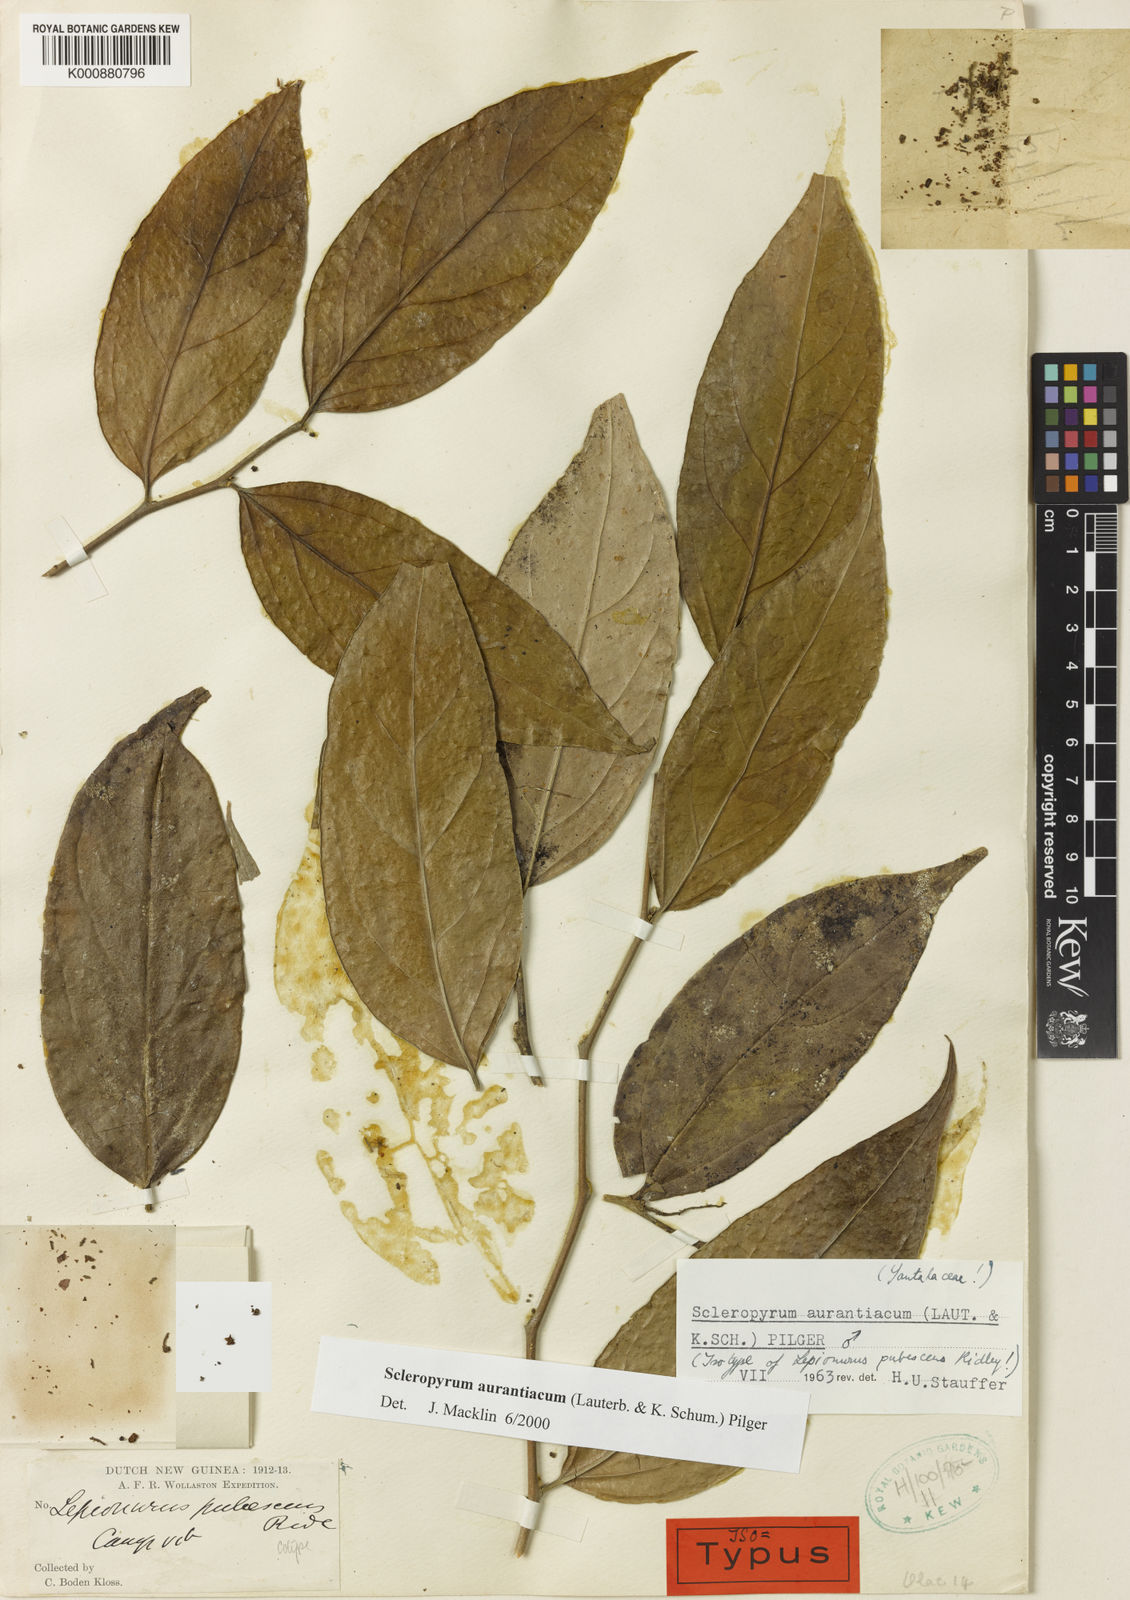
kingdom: Plantae
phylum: Tracheophyta
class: Magnoliopsida
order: Santalales
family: Cervantesiaceae
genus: Scleropyrum
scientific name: Scleropyrum aurantiacum
